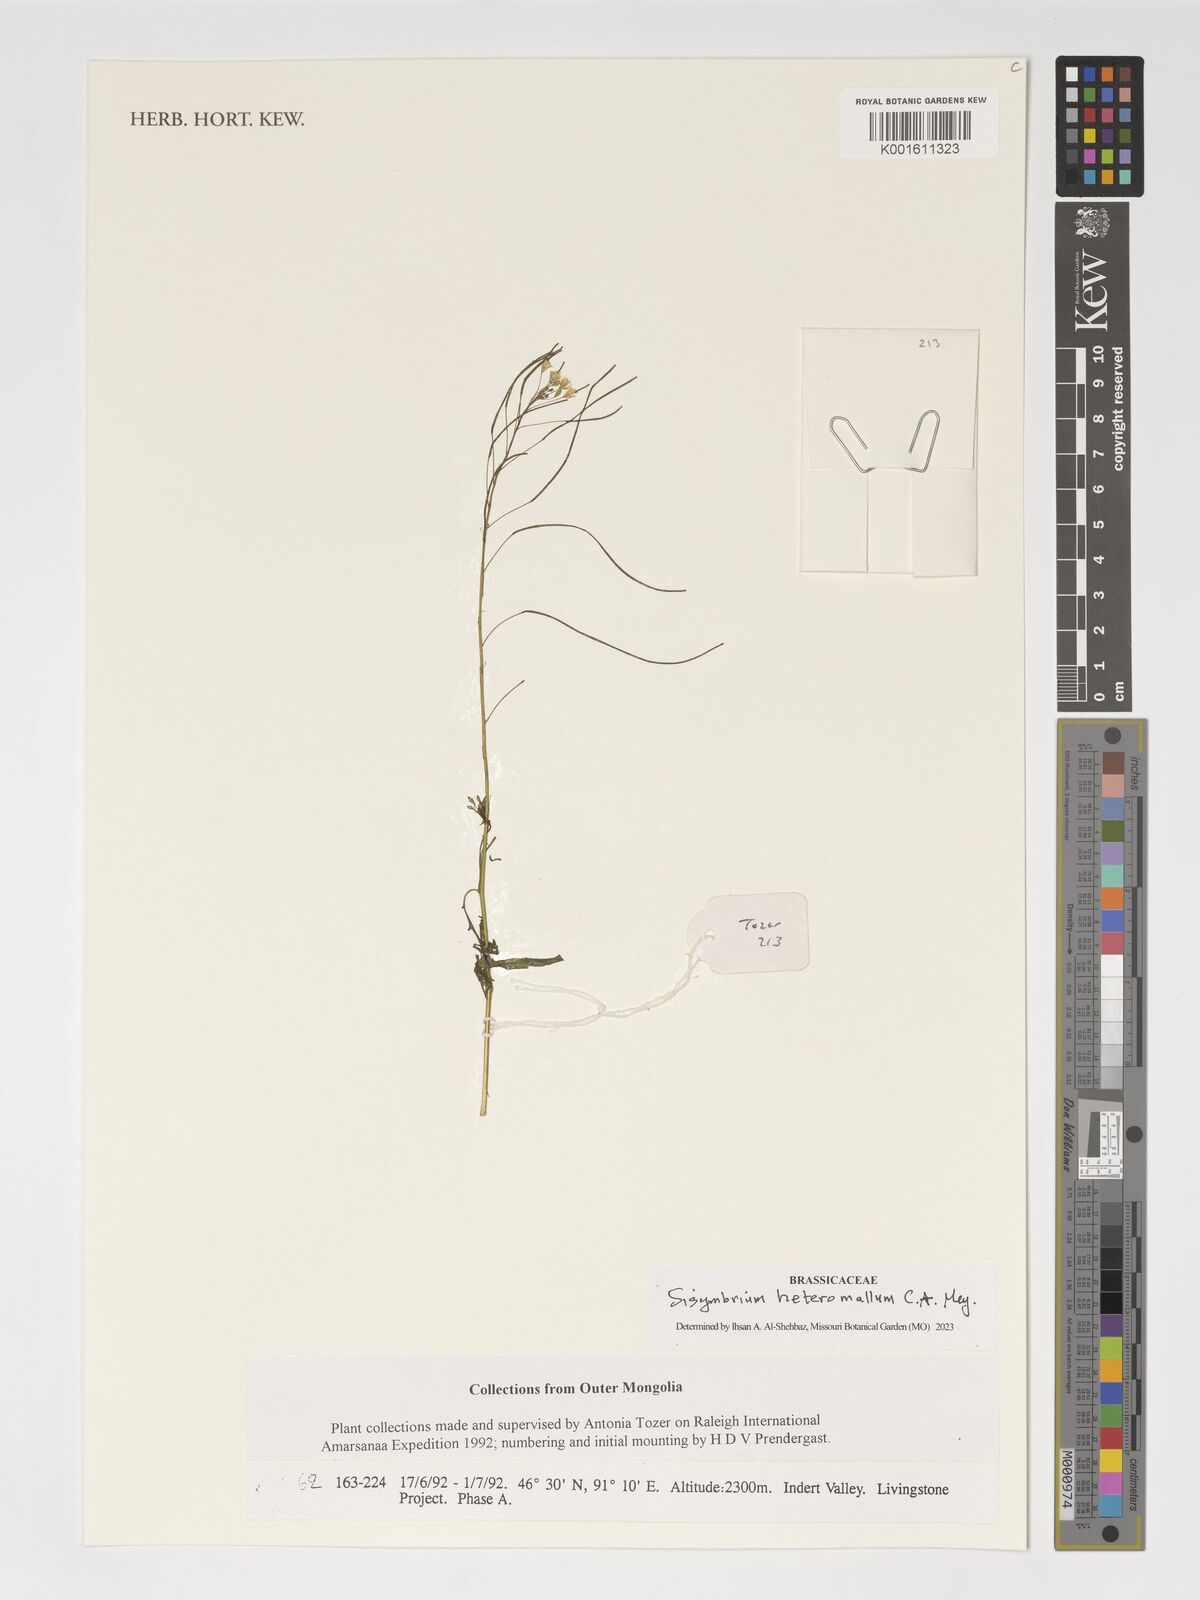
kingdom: Plantae
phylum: Tracheophyta
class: Magnoliopsida
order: Brassicales
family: Brassicaceae
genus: Sisymbrium
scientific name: Sisymbrium heteromallum
